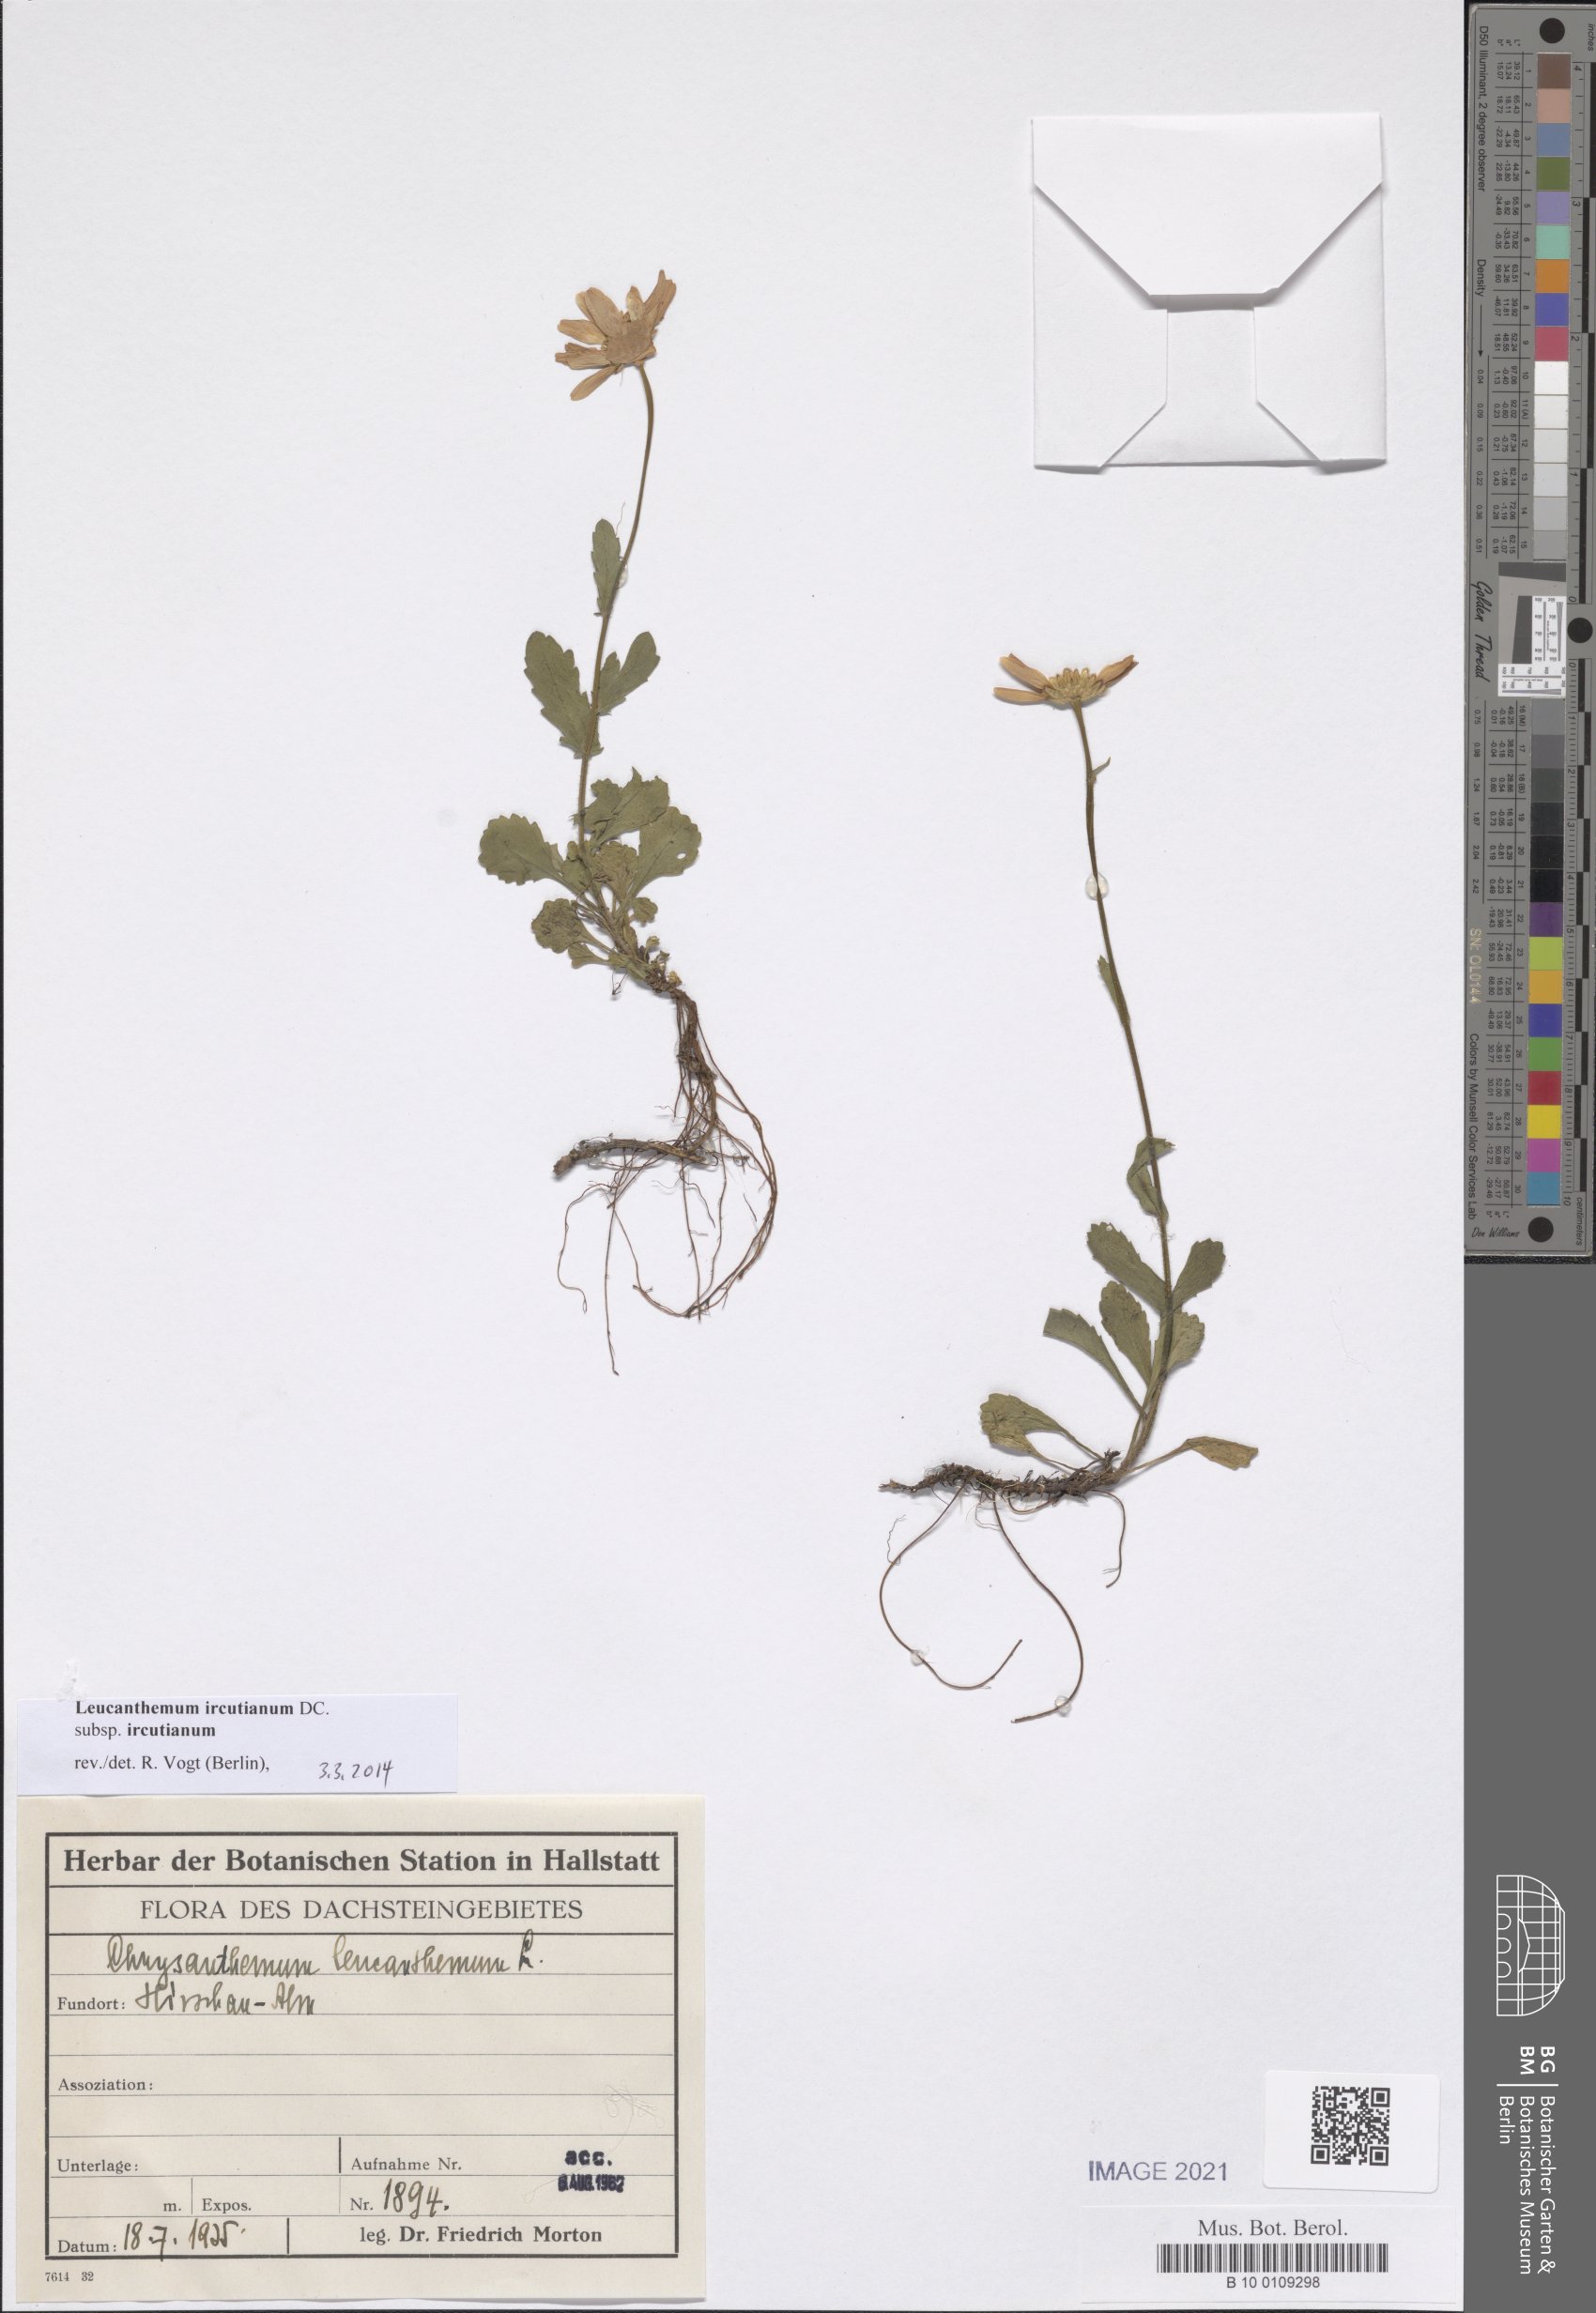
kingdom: Plantae
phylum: Tracheophyta
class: Magnoliopsida
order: Asterales
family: Asteraceae
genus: Leucanthemum
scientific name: Leucanthemum ircutianum
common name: Daisy
